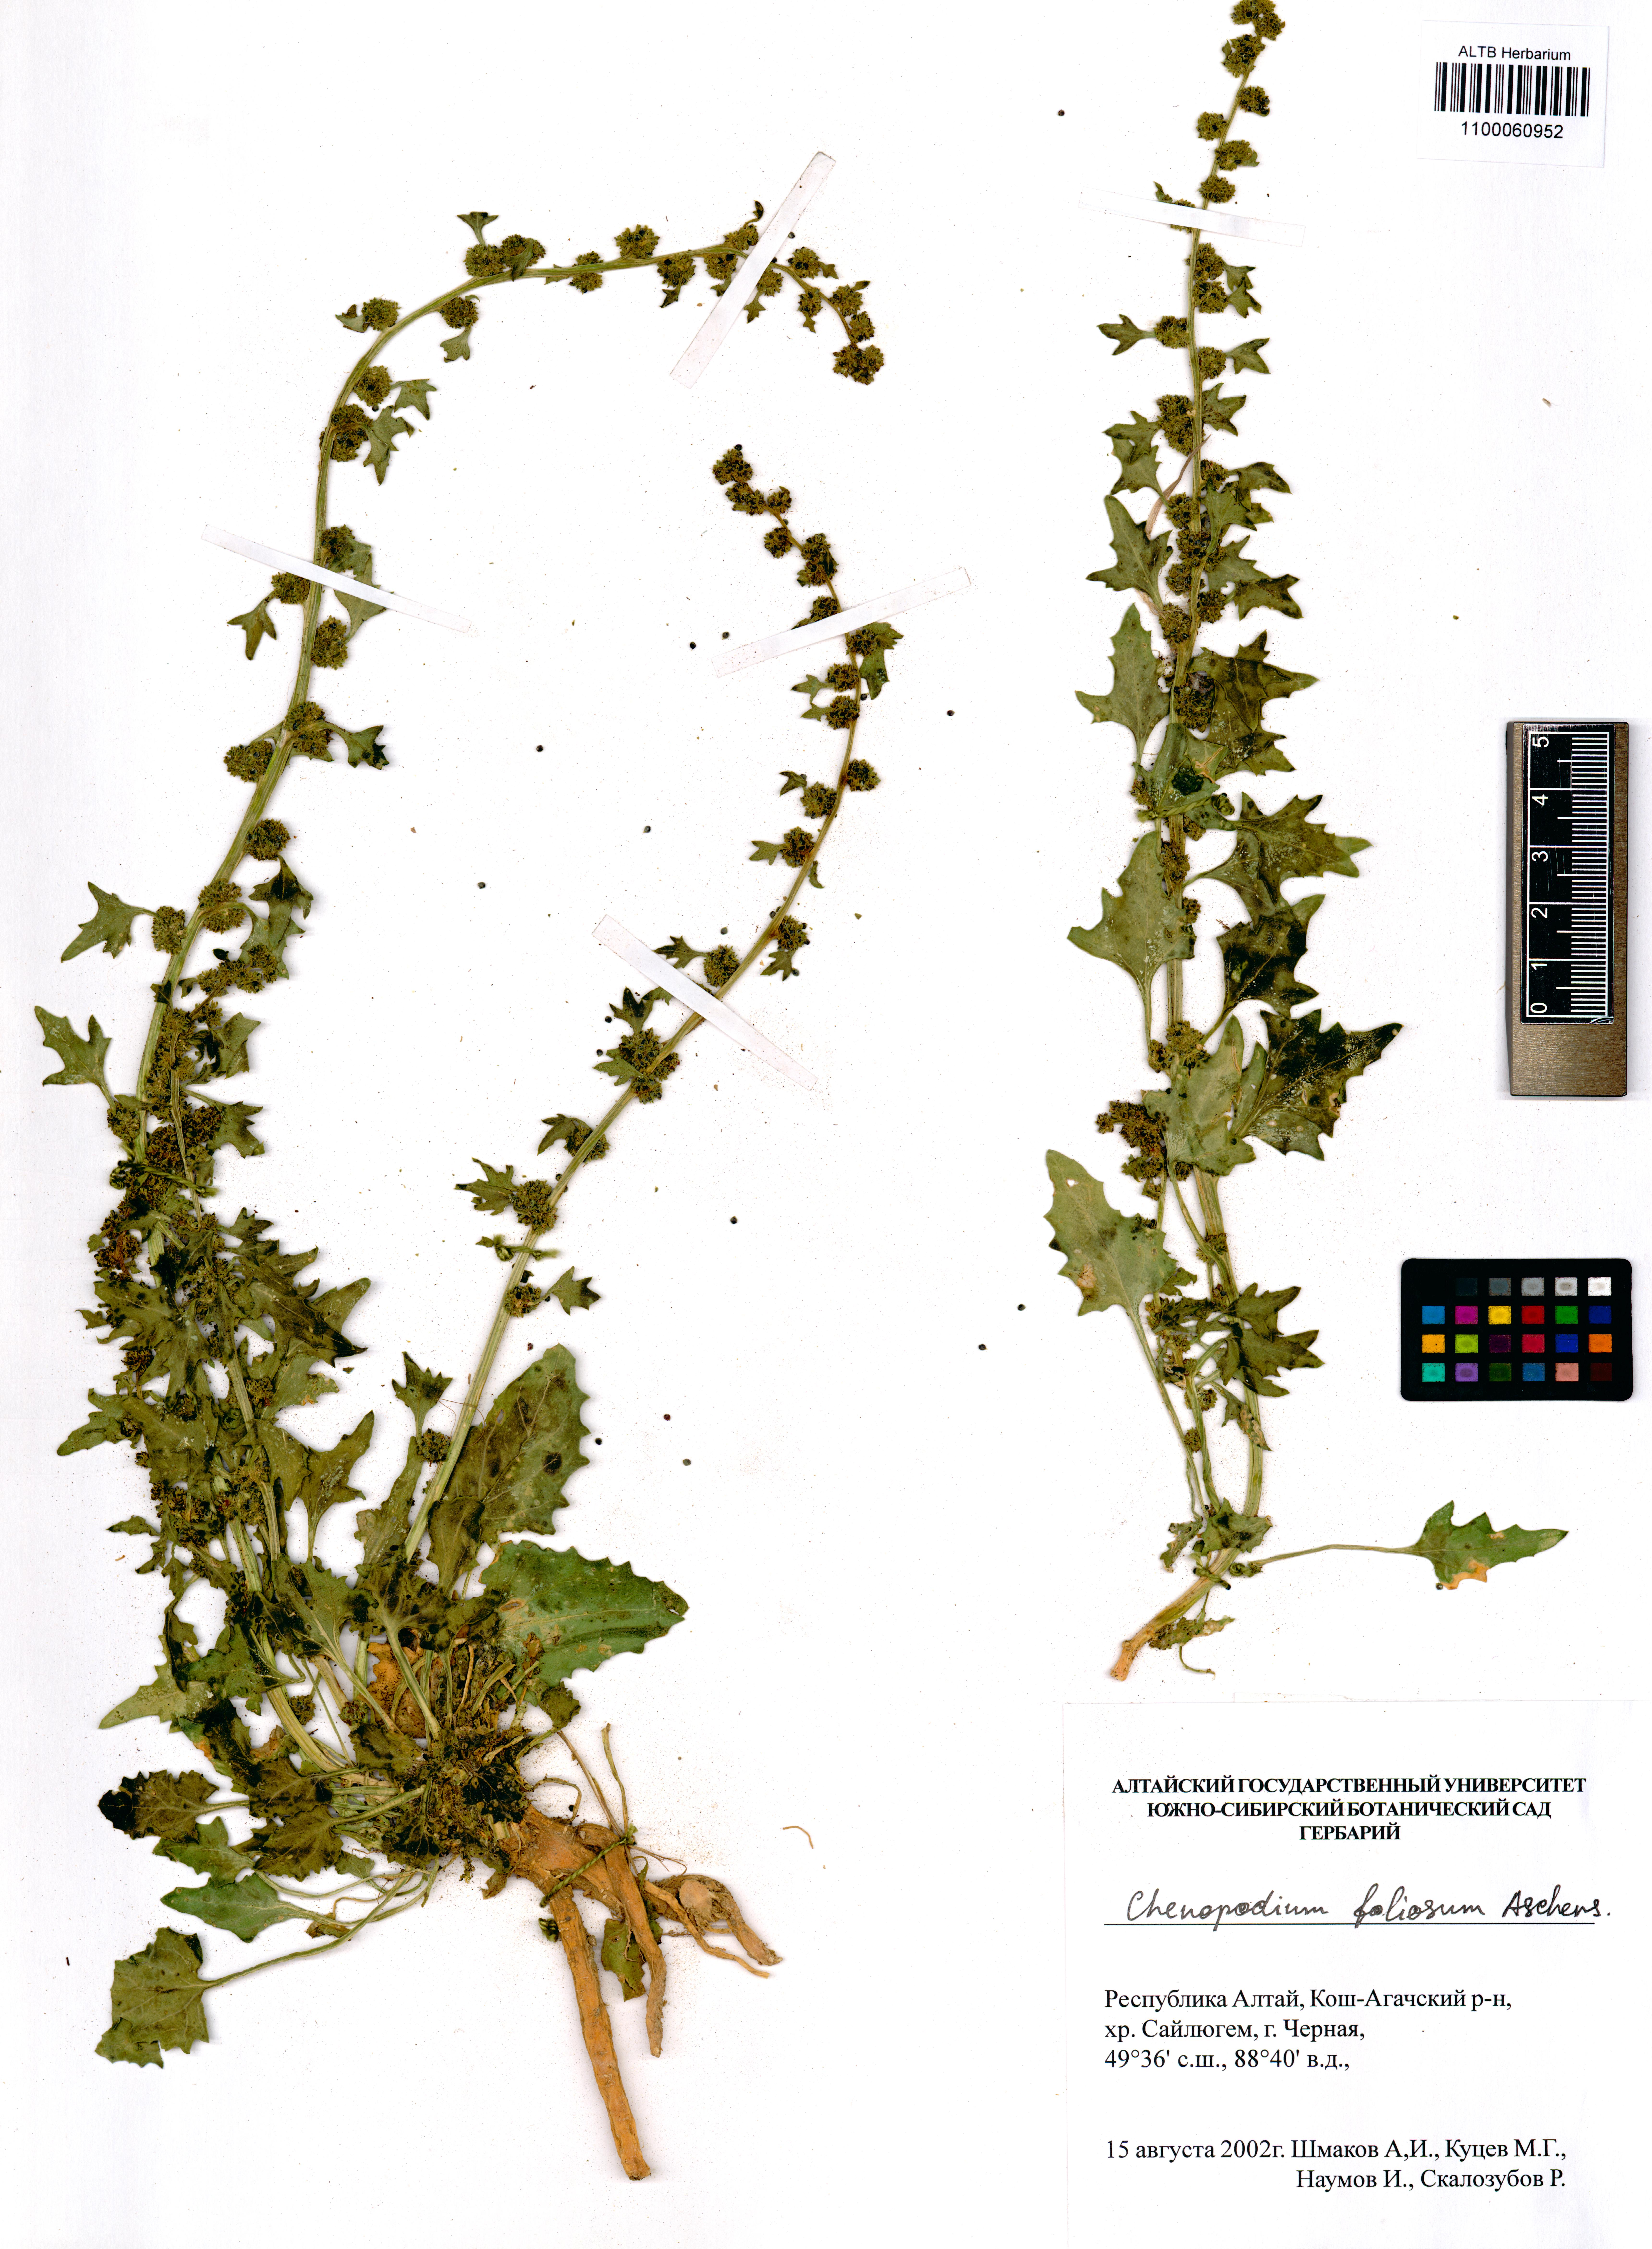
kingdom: Plantae
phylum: Tracheophyta
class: Magnoliopsida
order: Caryophyllales
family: Amaranthaceae
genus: Blitum
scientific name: Blitum virgatum
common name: Strawberry goosefoot
